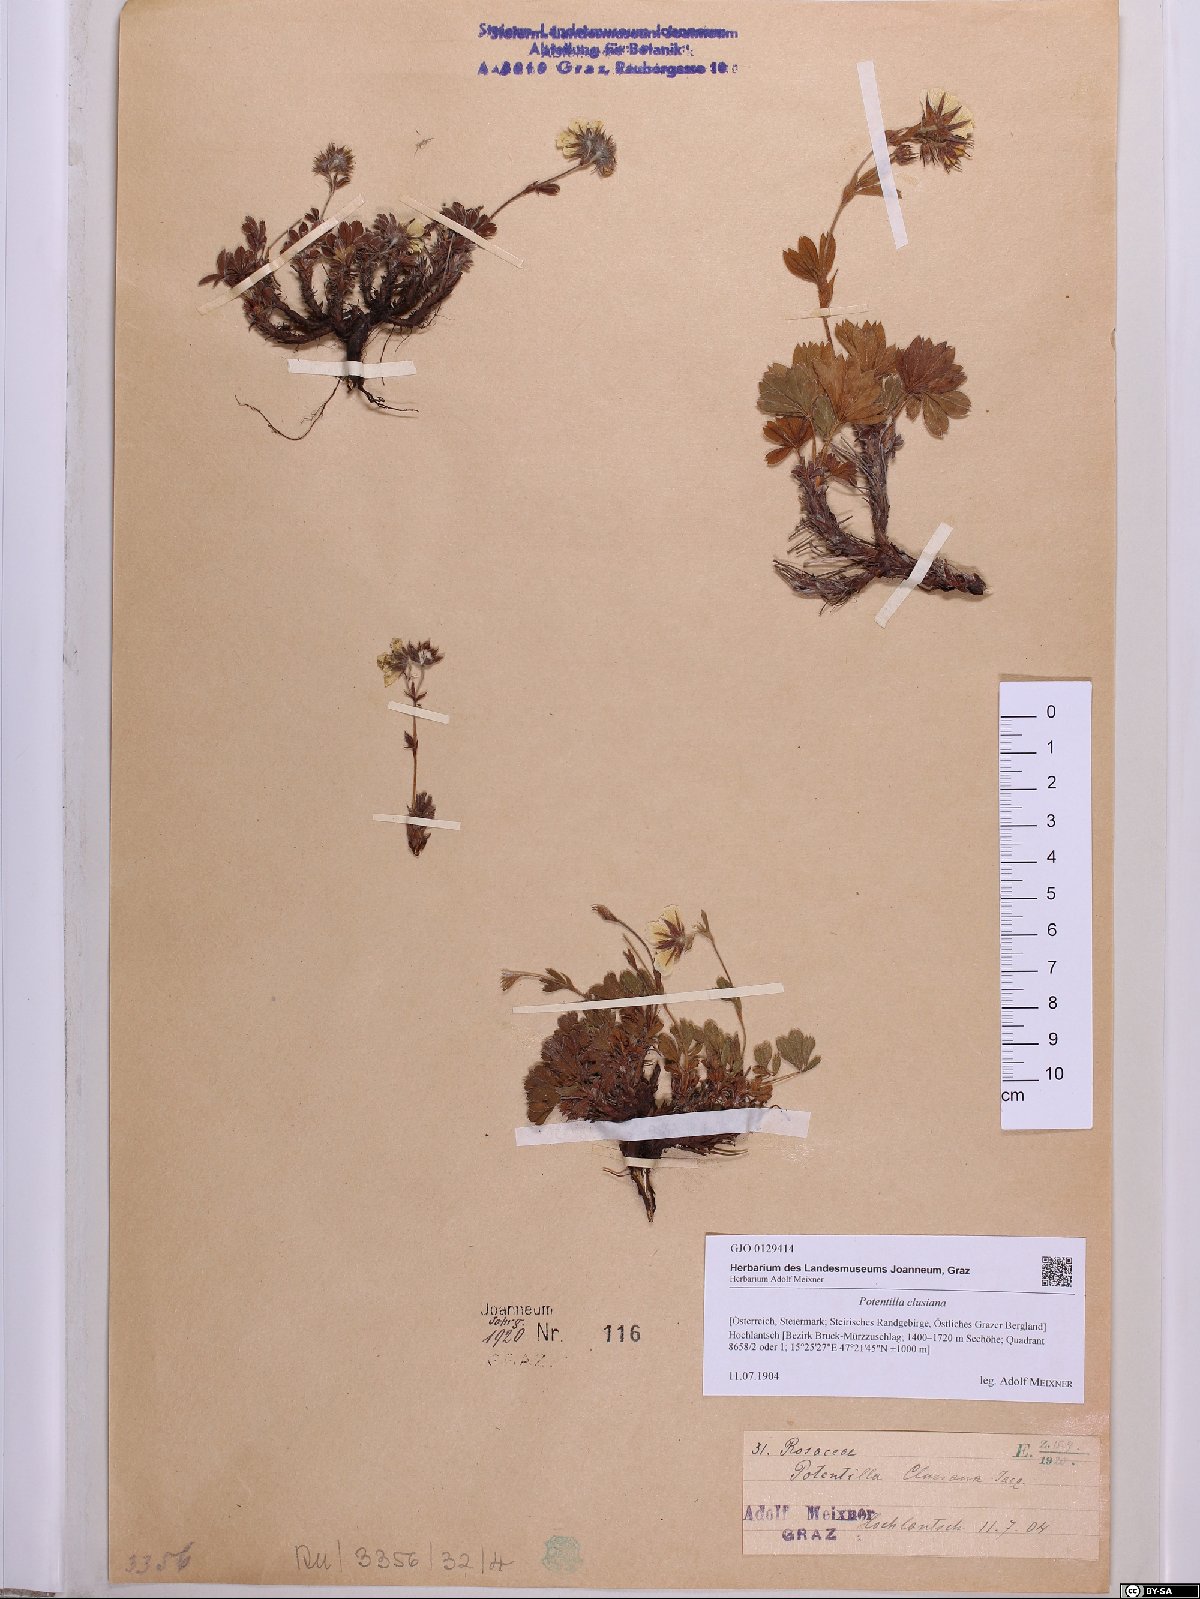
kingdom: Plantae
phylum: Tracheophyta
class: Magnoliopsida
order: Rosales
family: Rosaceae
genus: Potentilla
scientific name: Potentilla clusiana
